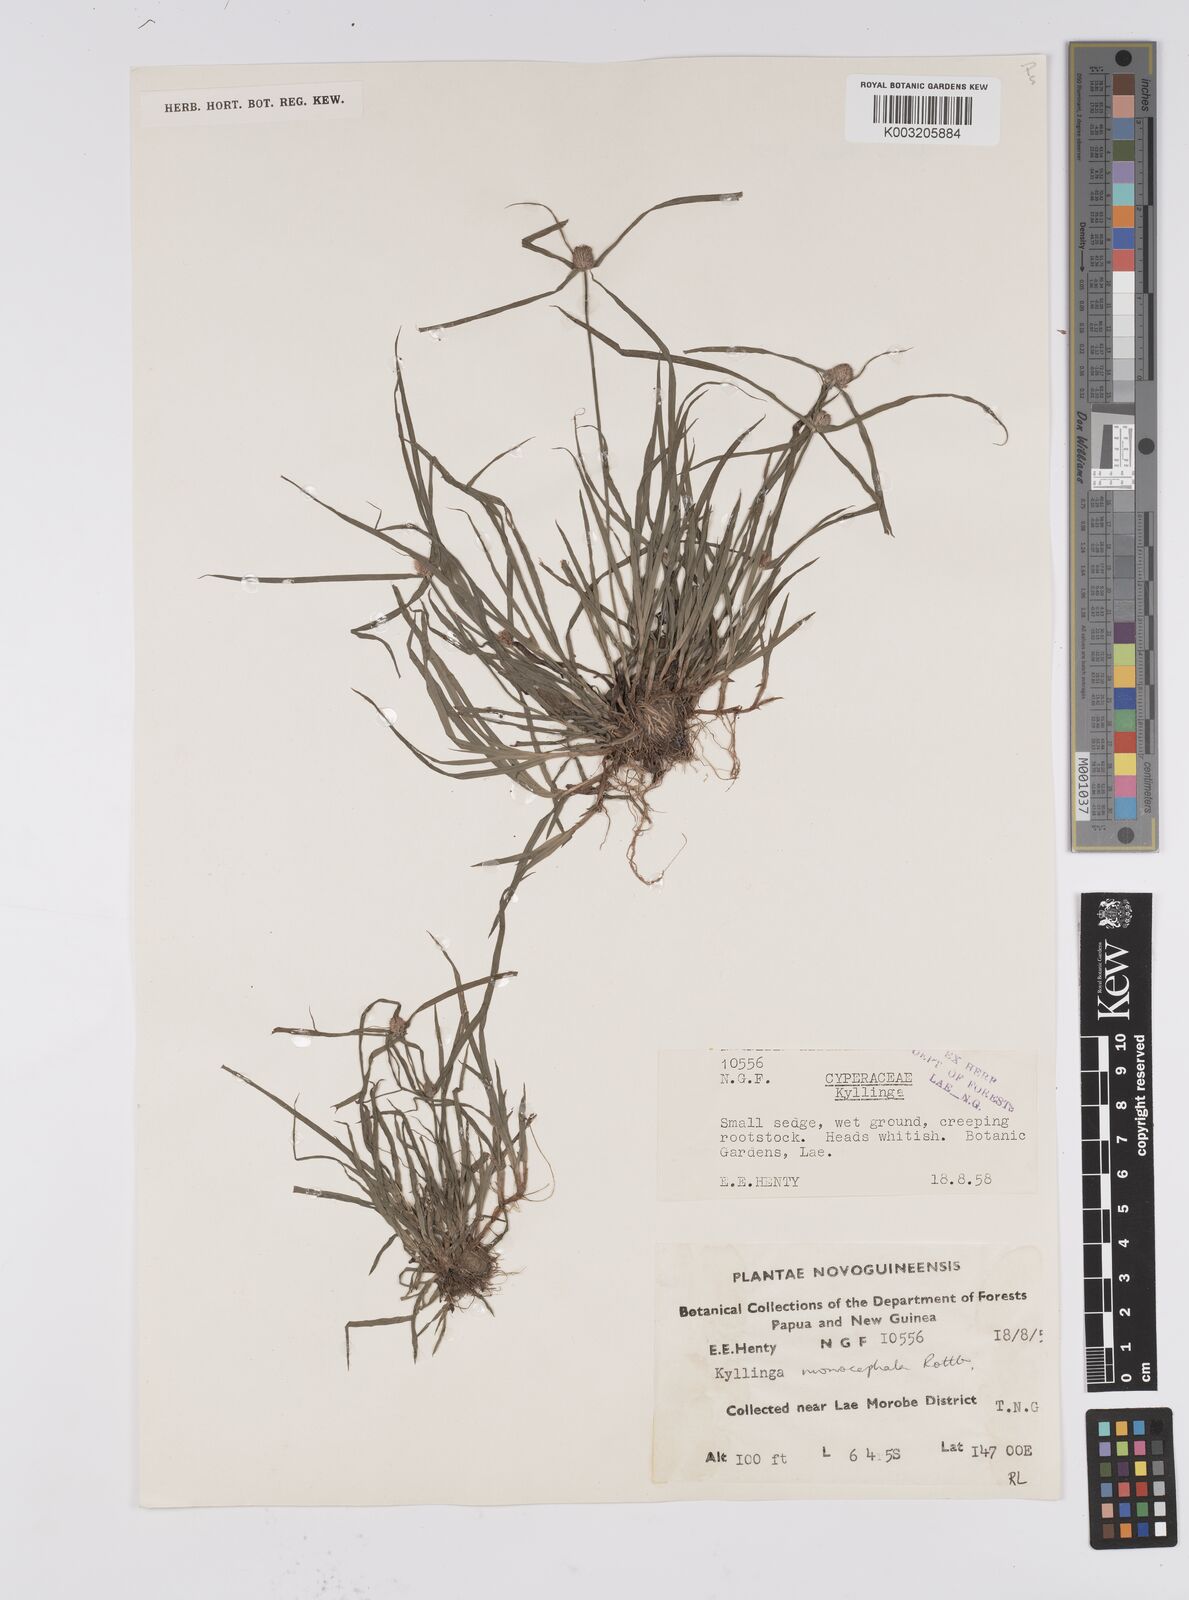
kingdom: Plantae
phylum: Tracheophyta
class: Liliopsida
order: Poales
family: Cyperaceae
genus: Cyperus
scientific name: Cyperus nemoralis
